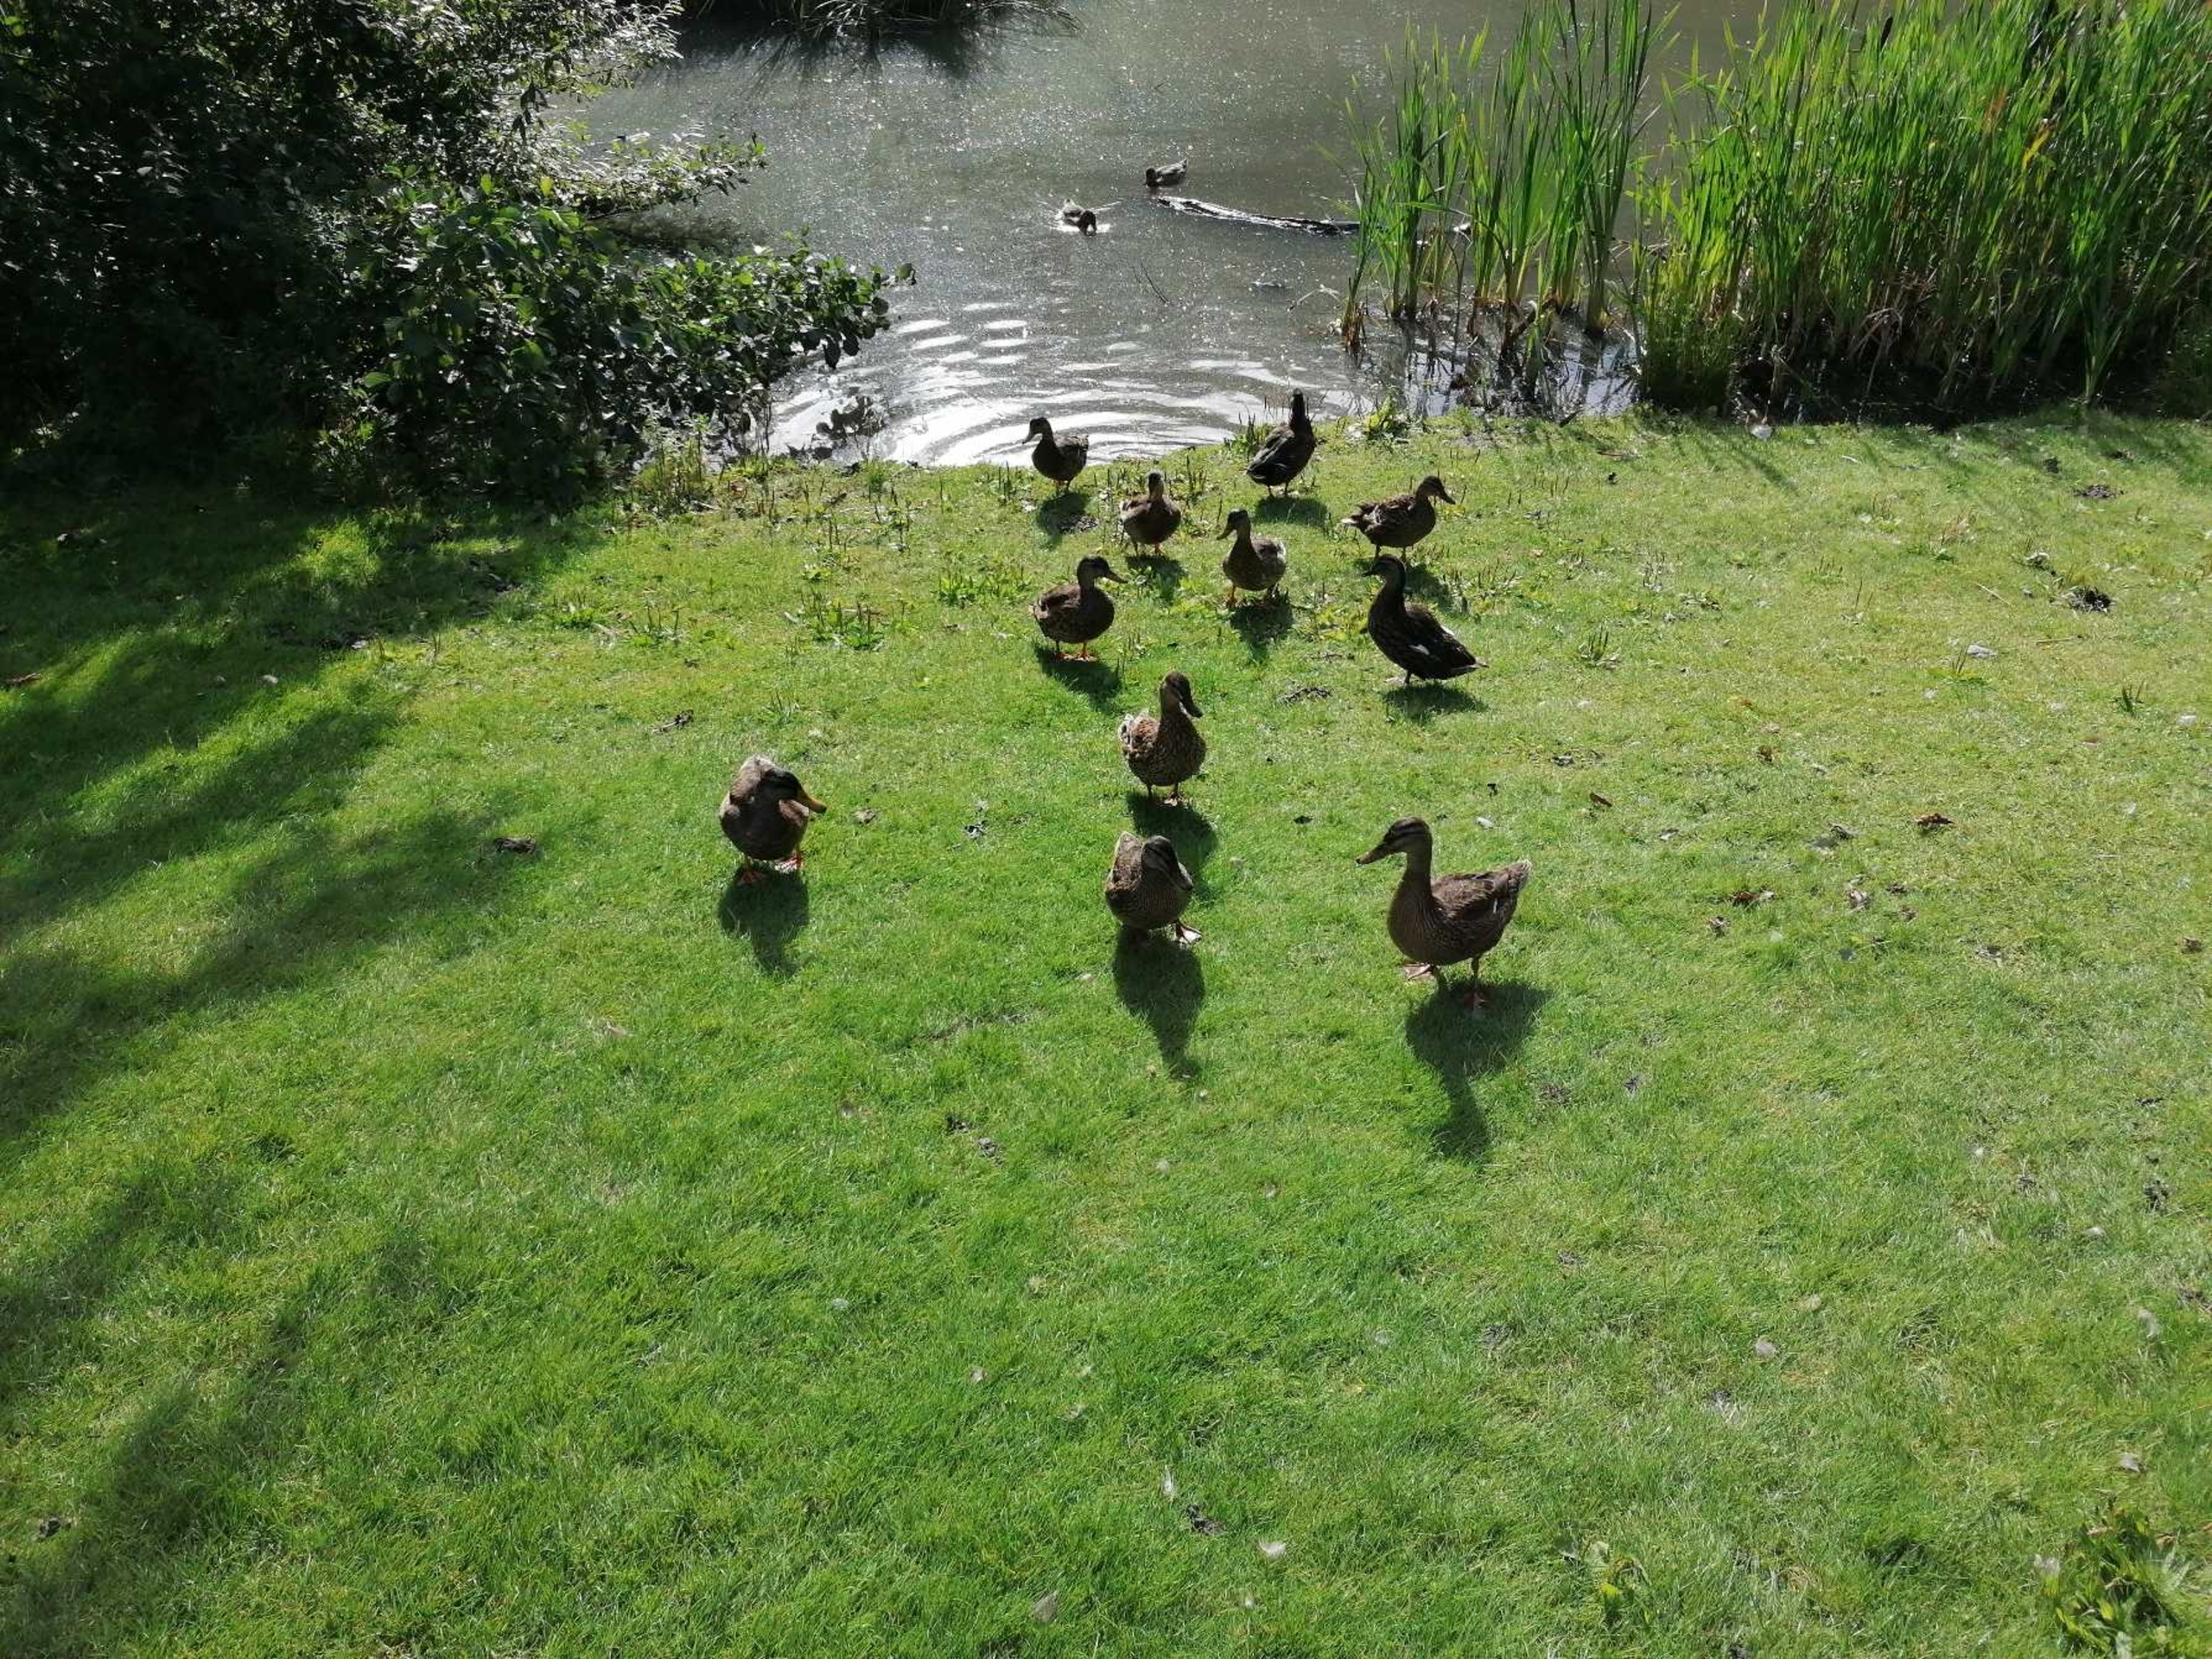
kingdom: Animalia
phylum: Chordata
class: Aves
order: Anseriformes
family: Anatidae
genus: Anas
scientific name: Anas platyrhynchos
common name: Gråand
